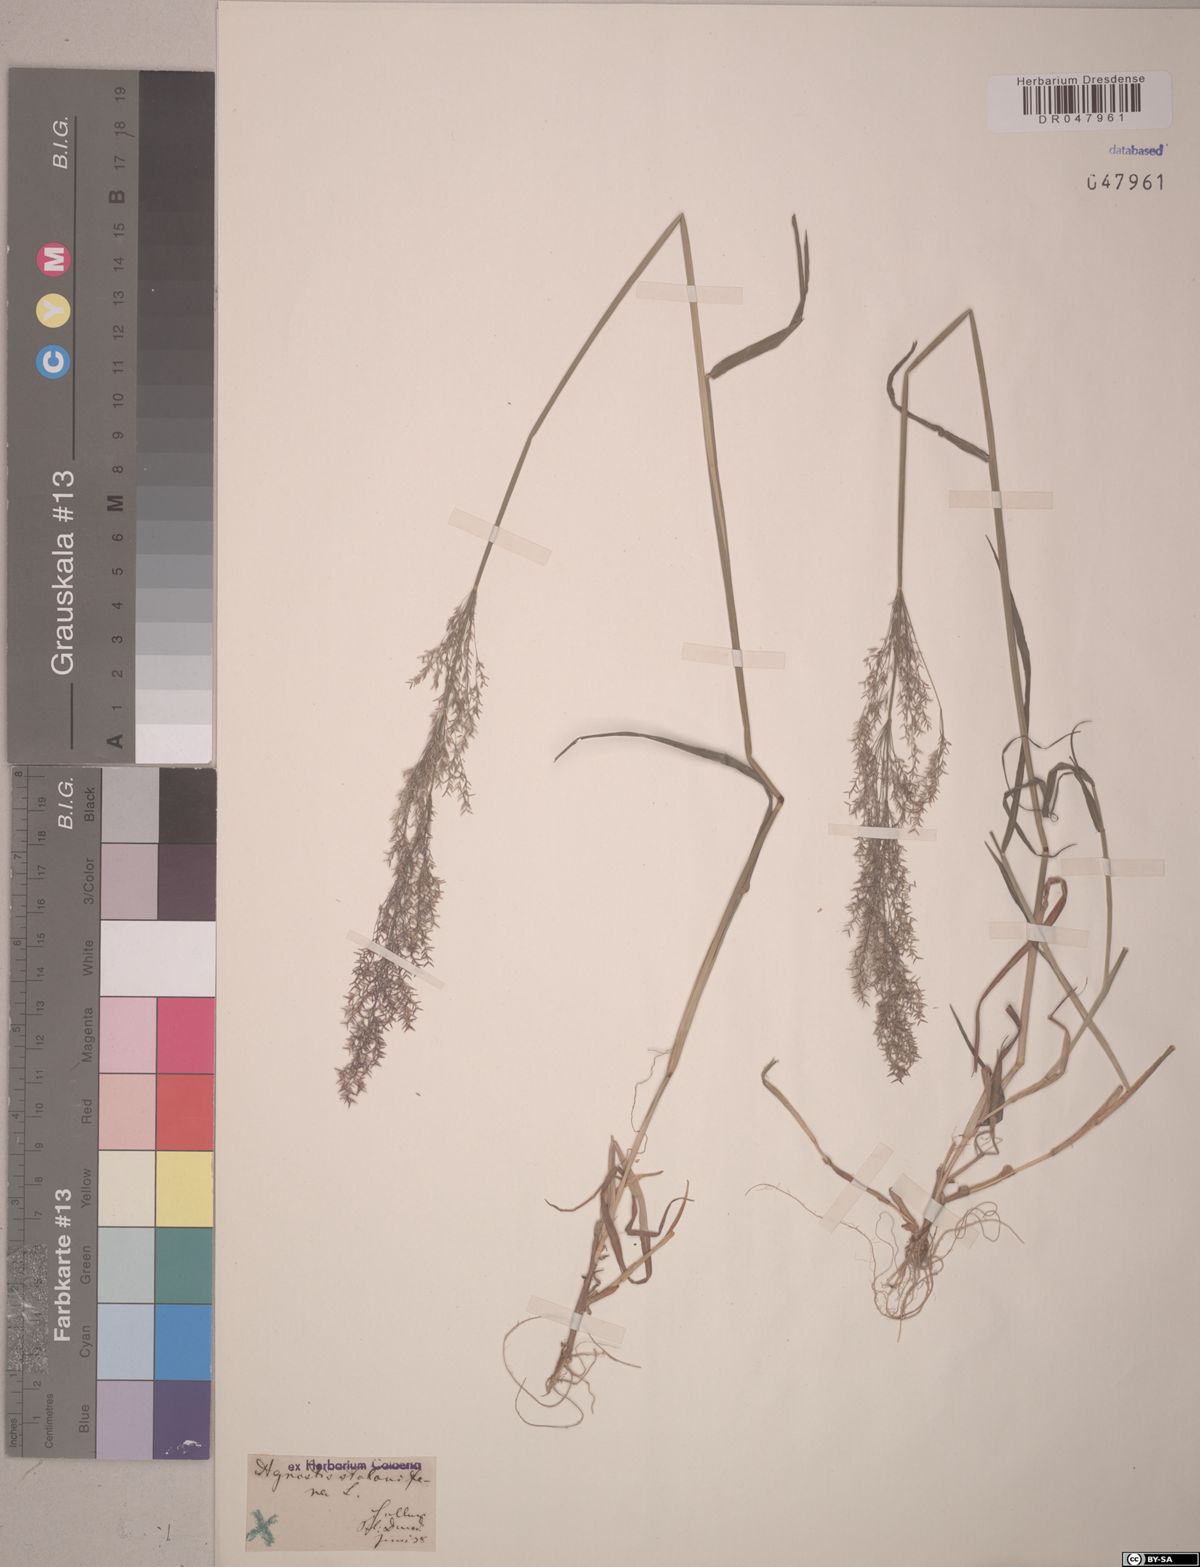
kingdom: Plantae
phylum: Tracheophyta
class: Liliopsida
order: Poales
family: Poaceae
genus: Agrostis
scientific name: Agrostis stolonifera
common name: Creeping bentgrass
